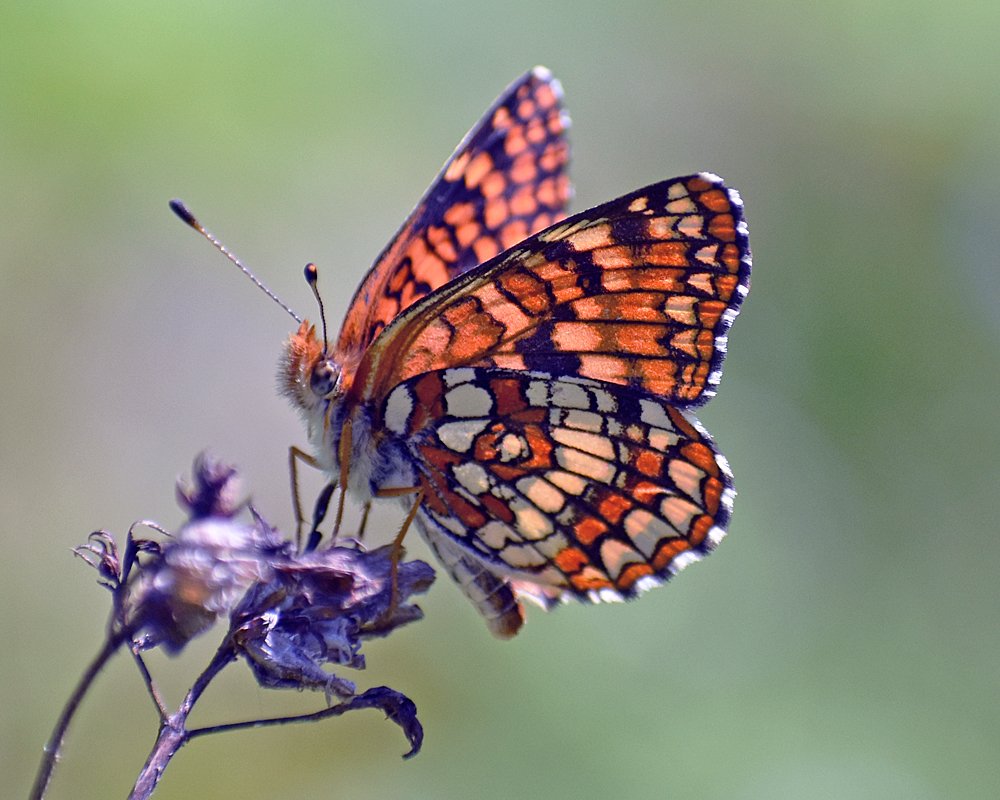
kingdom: Animalia
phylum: Arthropoda
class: Insecta
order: Lepidoptera
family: Nymphalidae
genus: Chlosyne
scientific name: Chlosyne palla
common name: Northern Checkerspot
